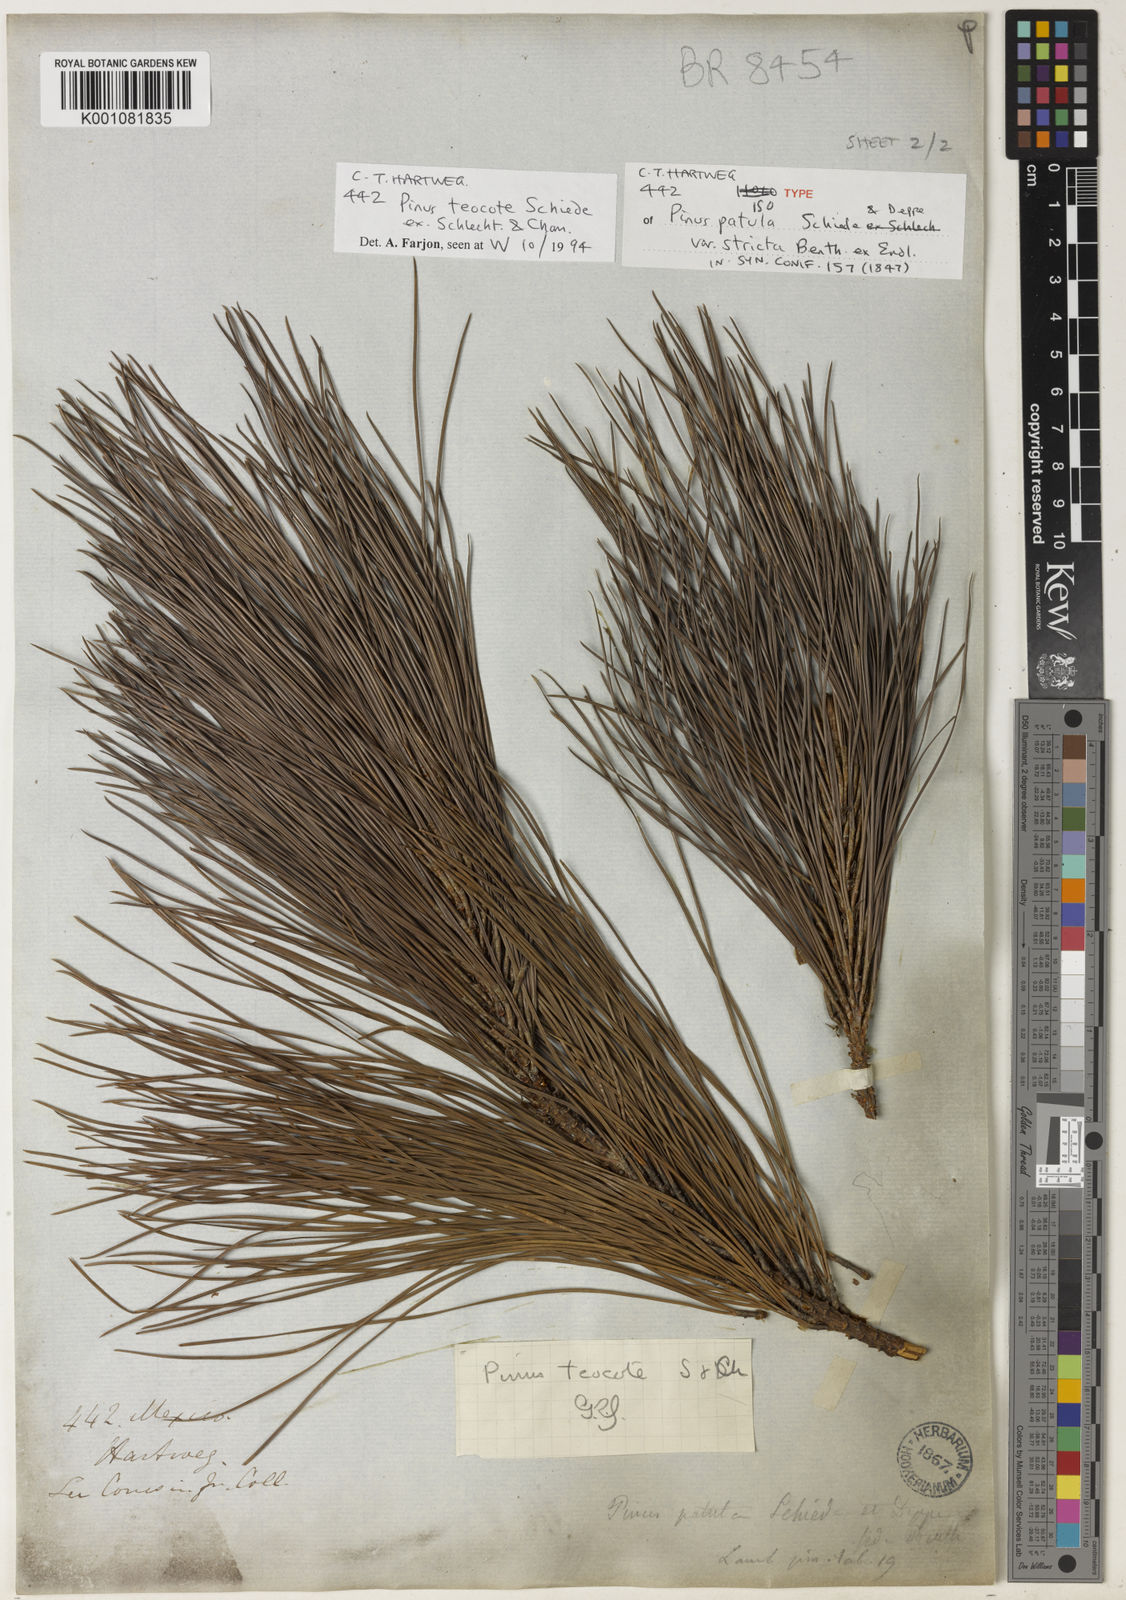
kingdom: Plantae
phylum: Tracheophyta
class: Pinopsida
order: Pinales
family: Pinaceae
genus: Pinus
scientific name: Pinus teocote
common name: Aztec pine
